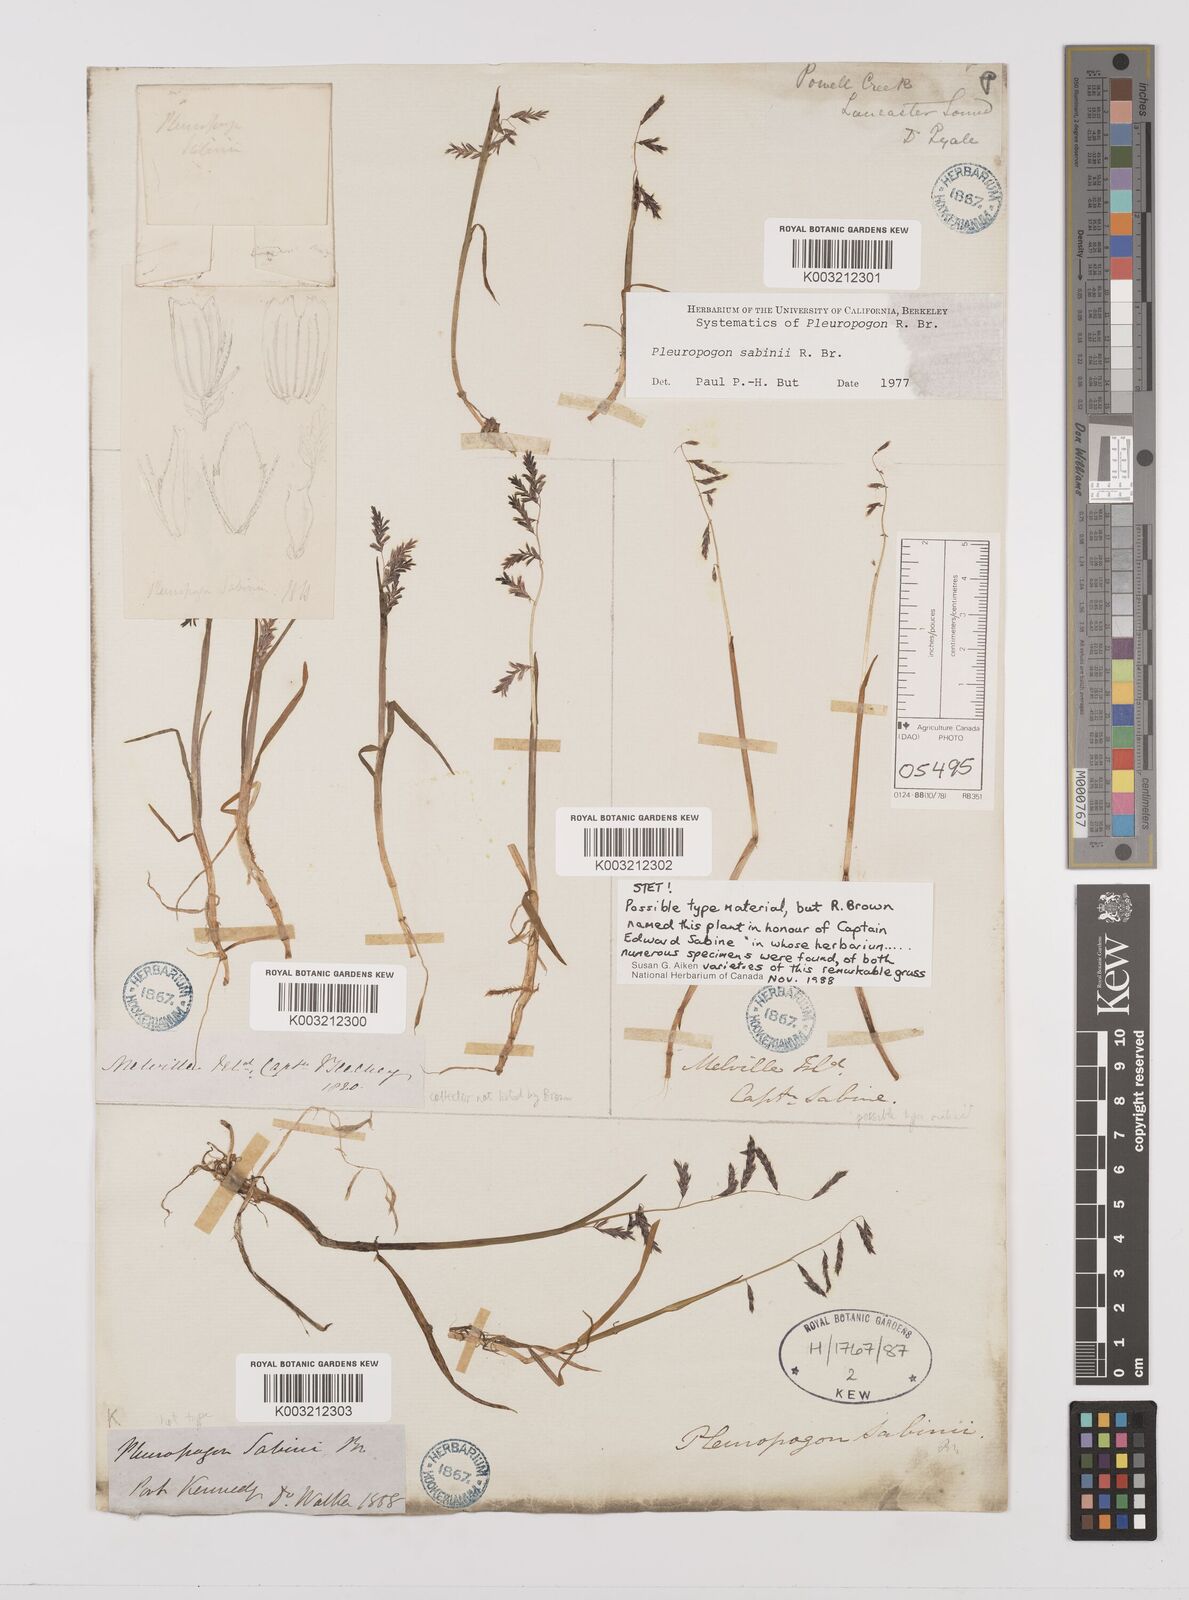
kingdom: Plantae
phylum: Tracheophyta
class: Liliopsida
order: Poales
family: Poaceae
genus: Pleuropogon
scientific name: Pleuropogon sabinei
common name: Sabine's false semaphoregrass
